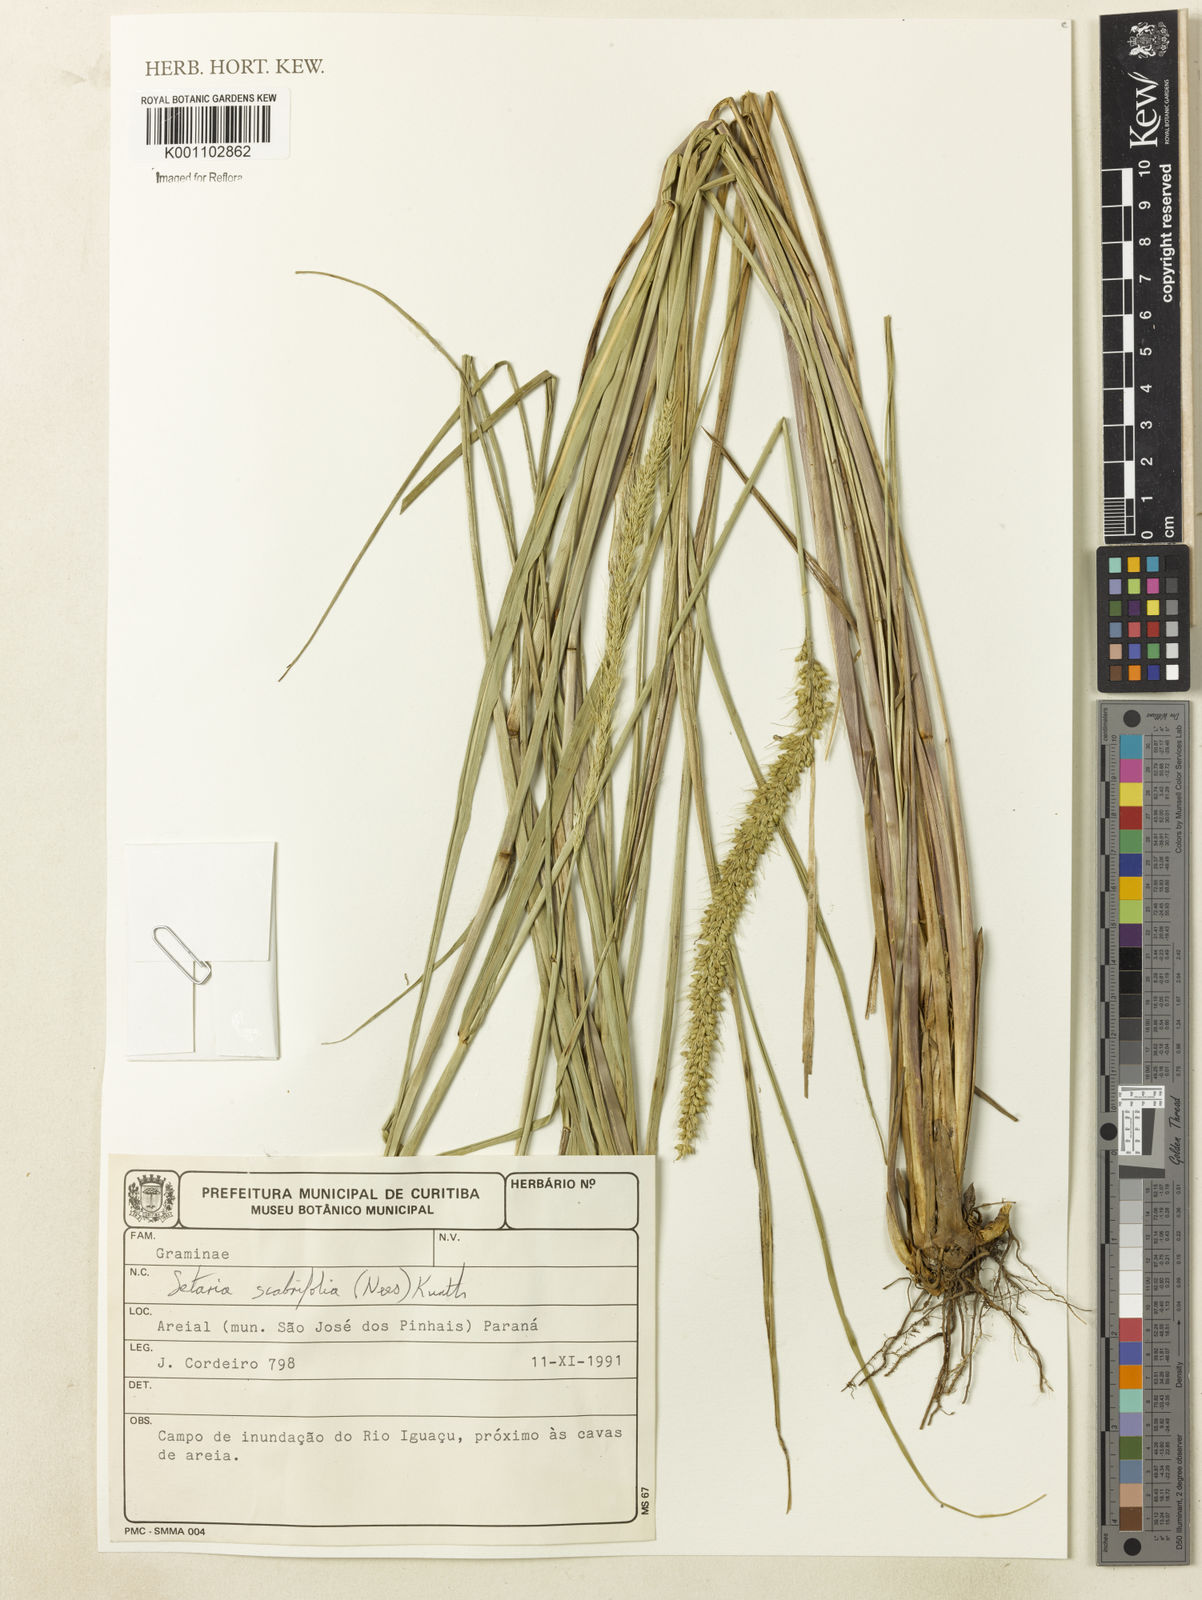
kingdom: Plantae
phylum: Tracheophyta
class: Liliopsida
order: Poales
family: Poaceae
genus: Setaria
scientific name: Setaria scabrifolia
